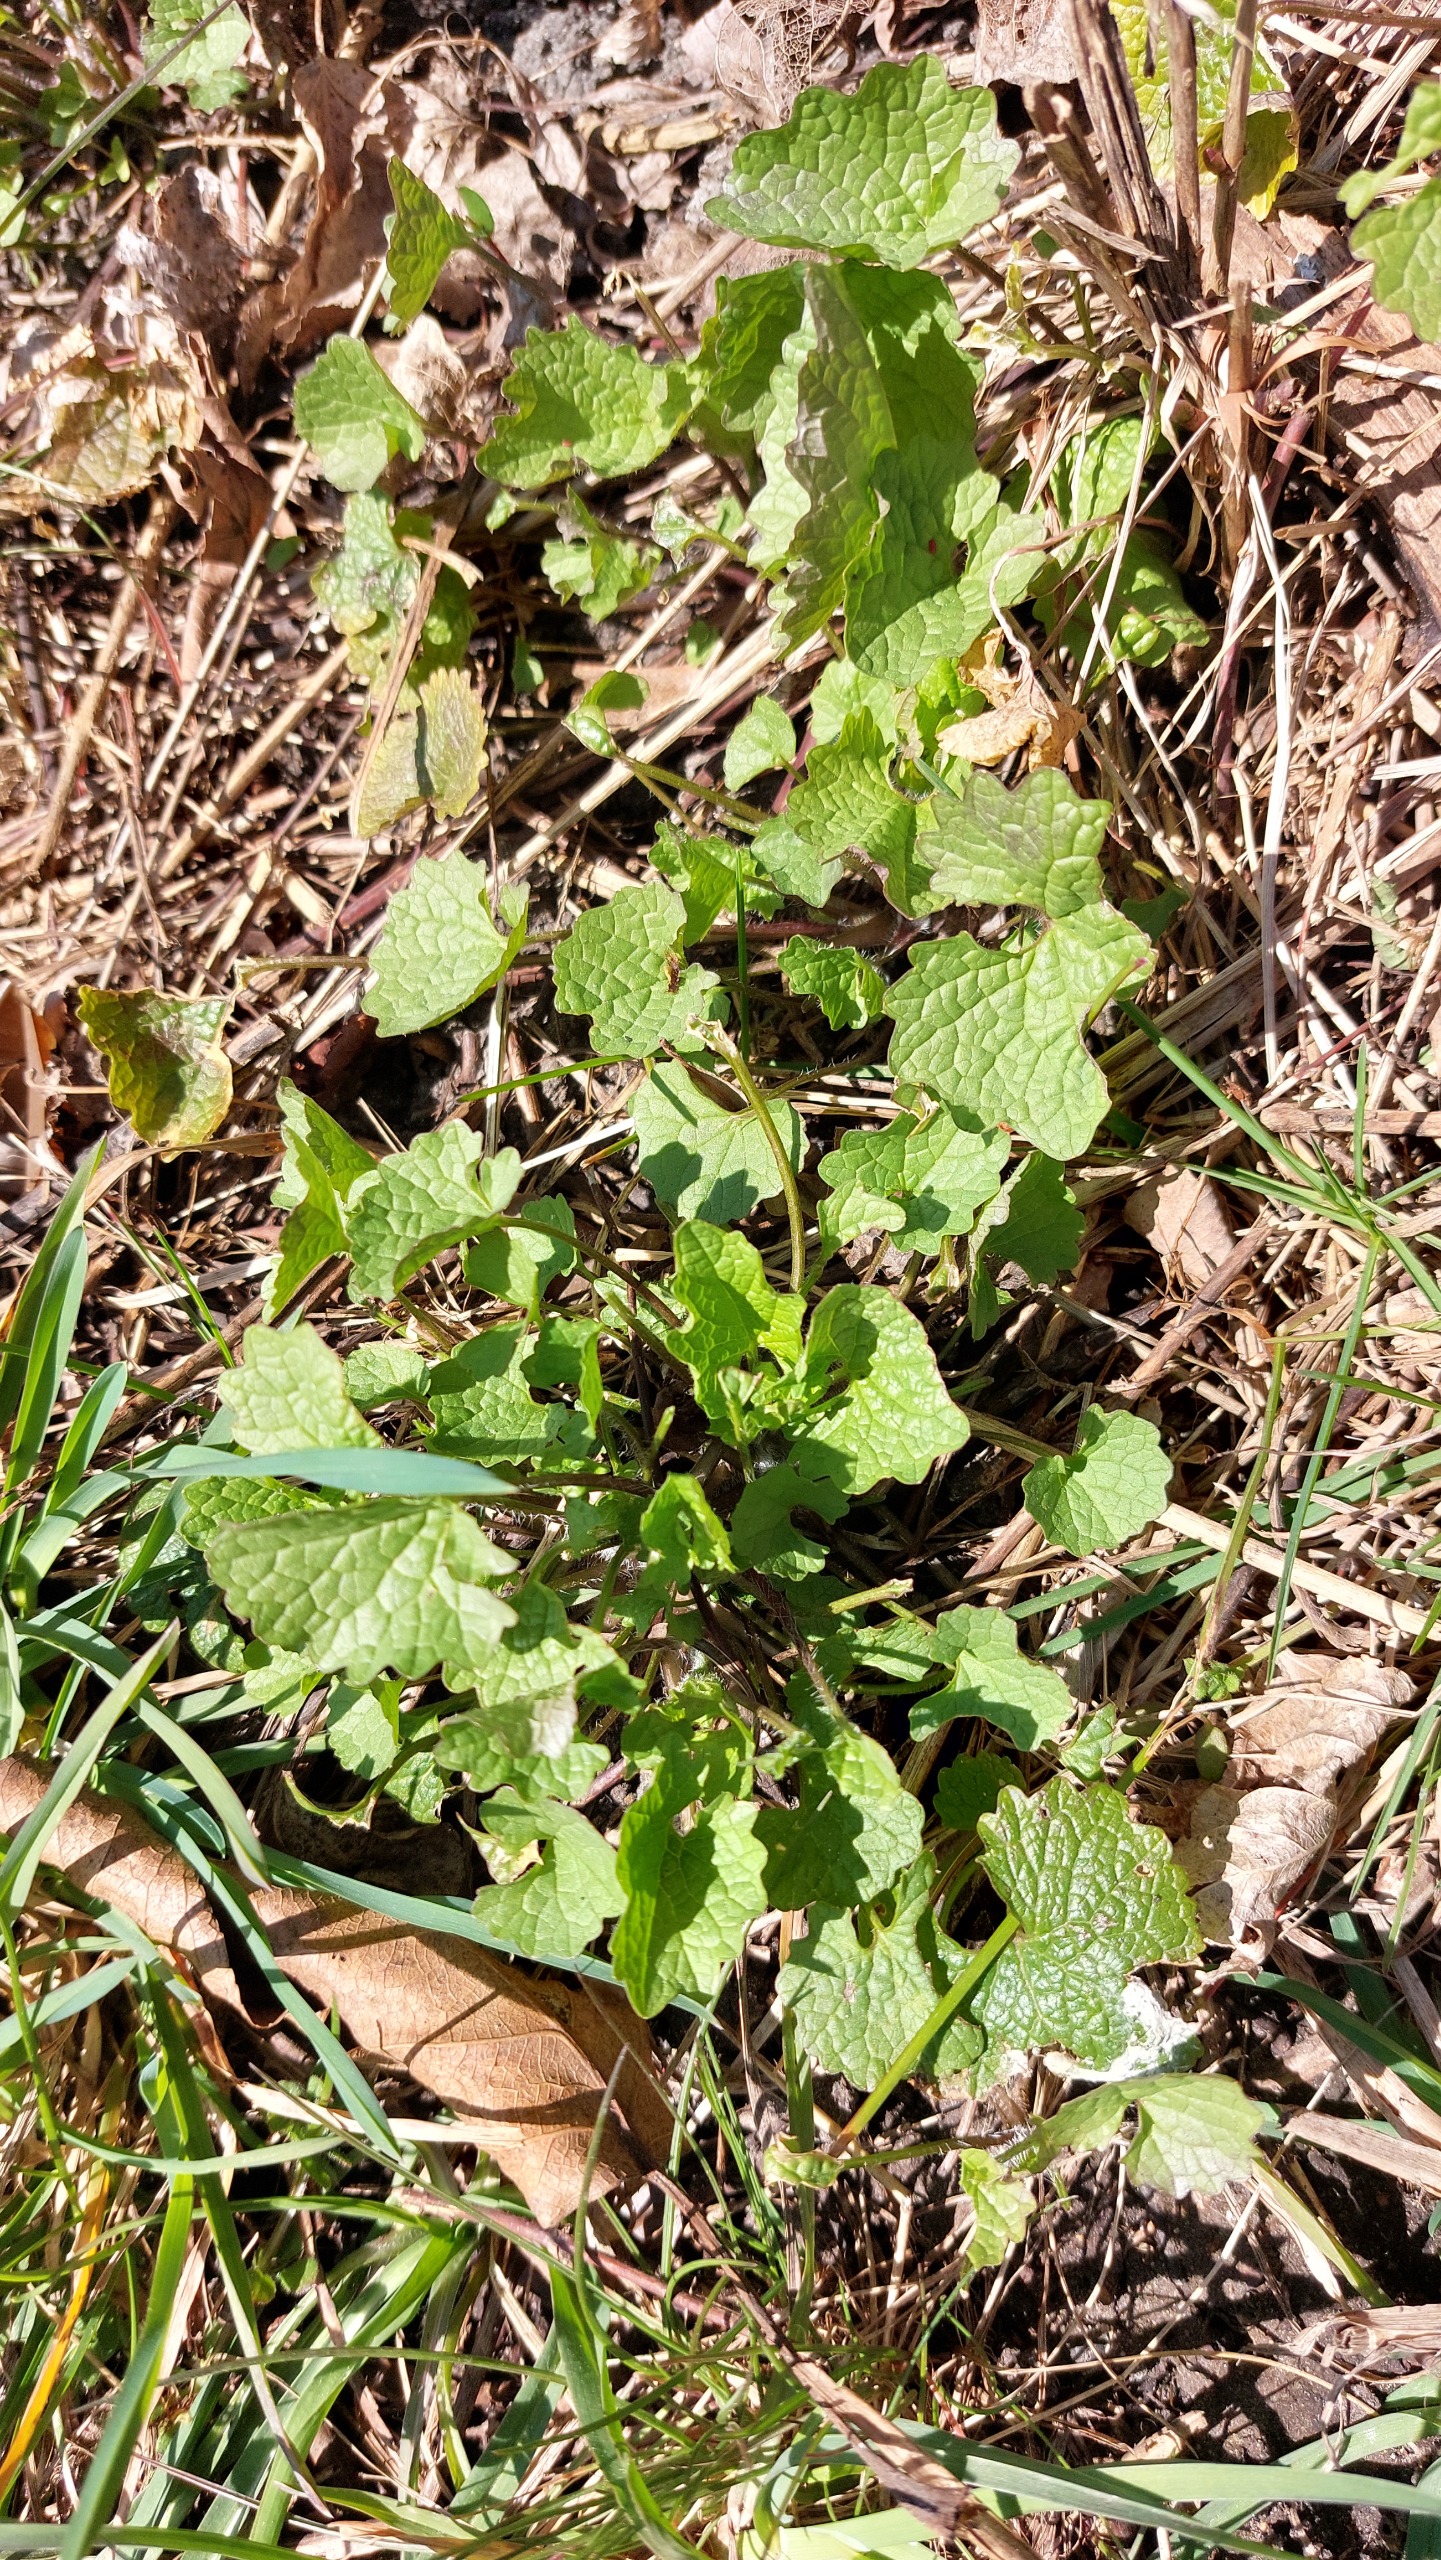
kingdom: Plantae
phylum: Tracheophyta
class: Magnoliopsida
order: Brassicales
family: Brassicaceae
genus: Alliaria
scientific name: Alliaria petiolata
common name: Løgkarse
